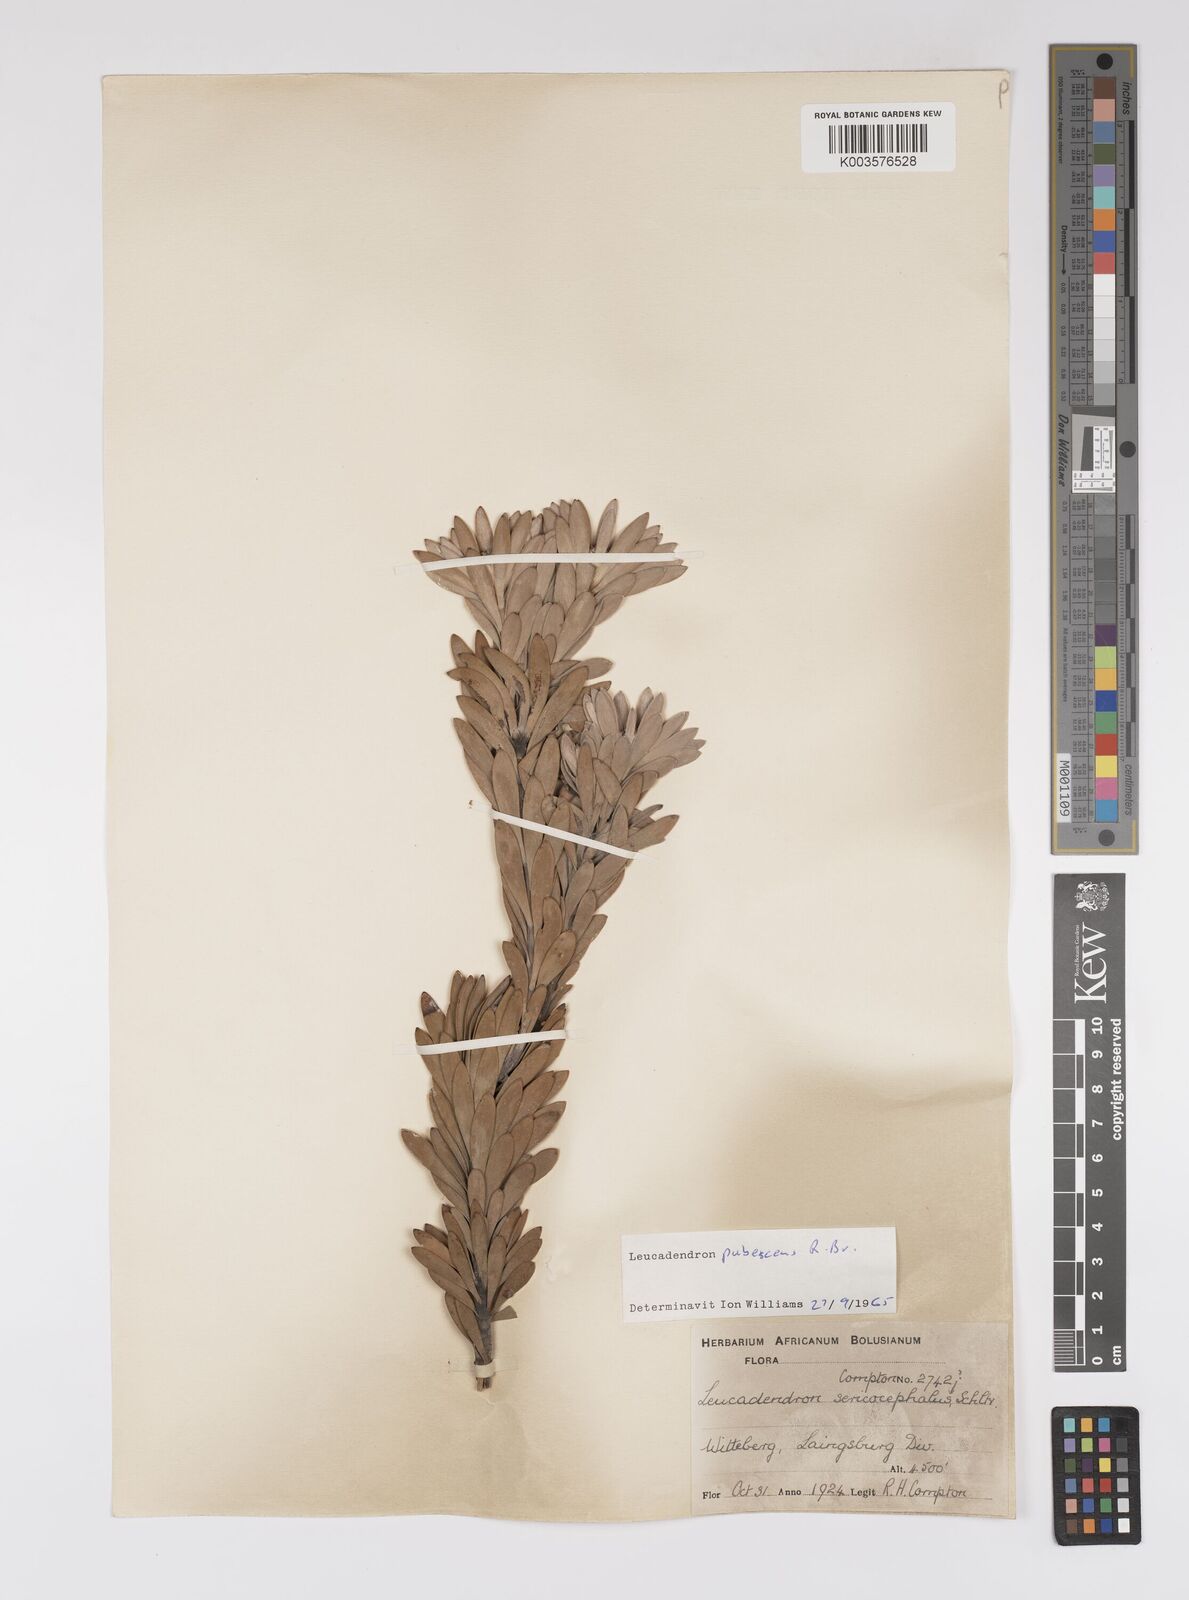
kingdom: Plantae
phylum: Tracheophyta
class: Magnoliopsida
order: Proteales
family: Proteaceae
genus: Leucadendron
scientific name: Leucadendron pubescens
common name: Grey conebush
